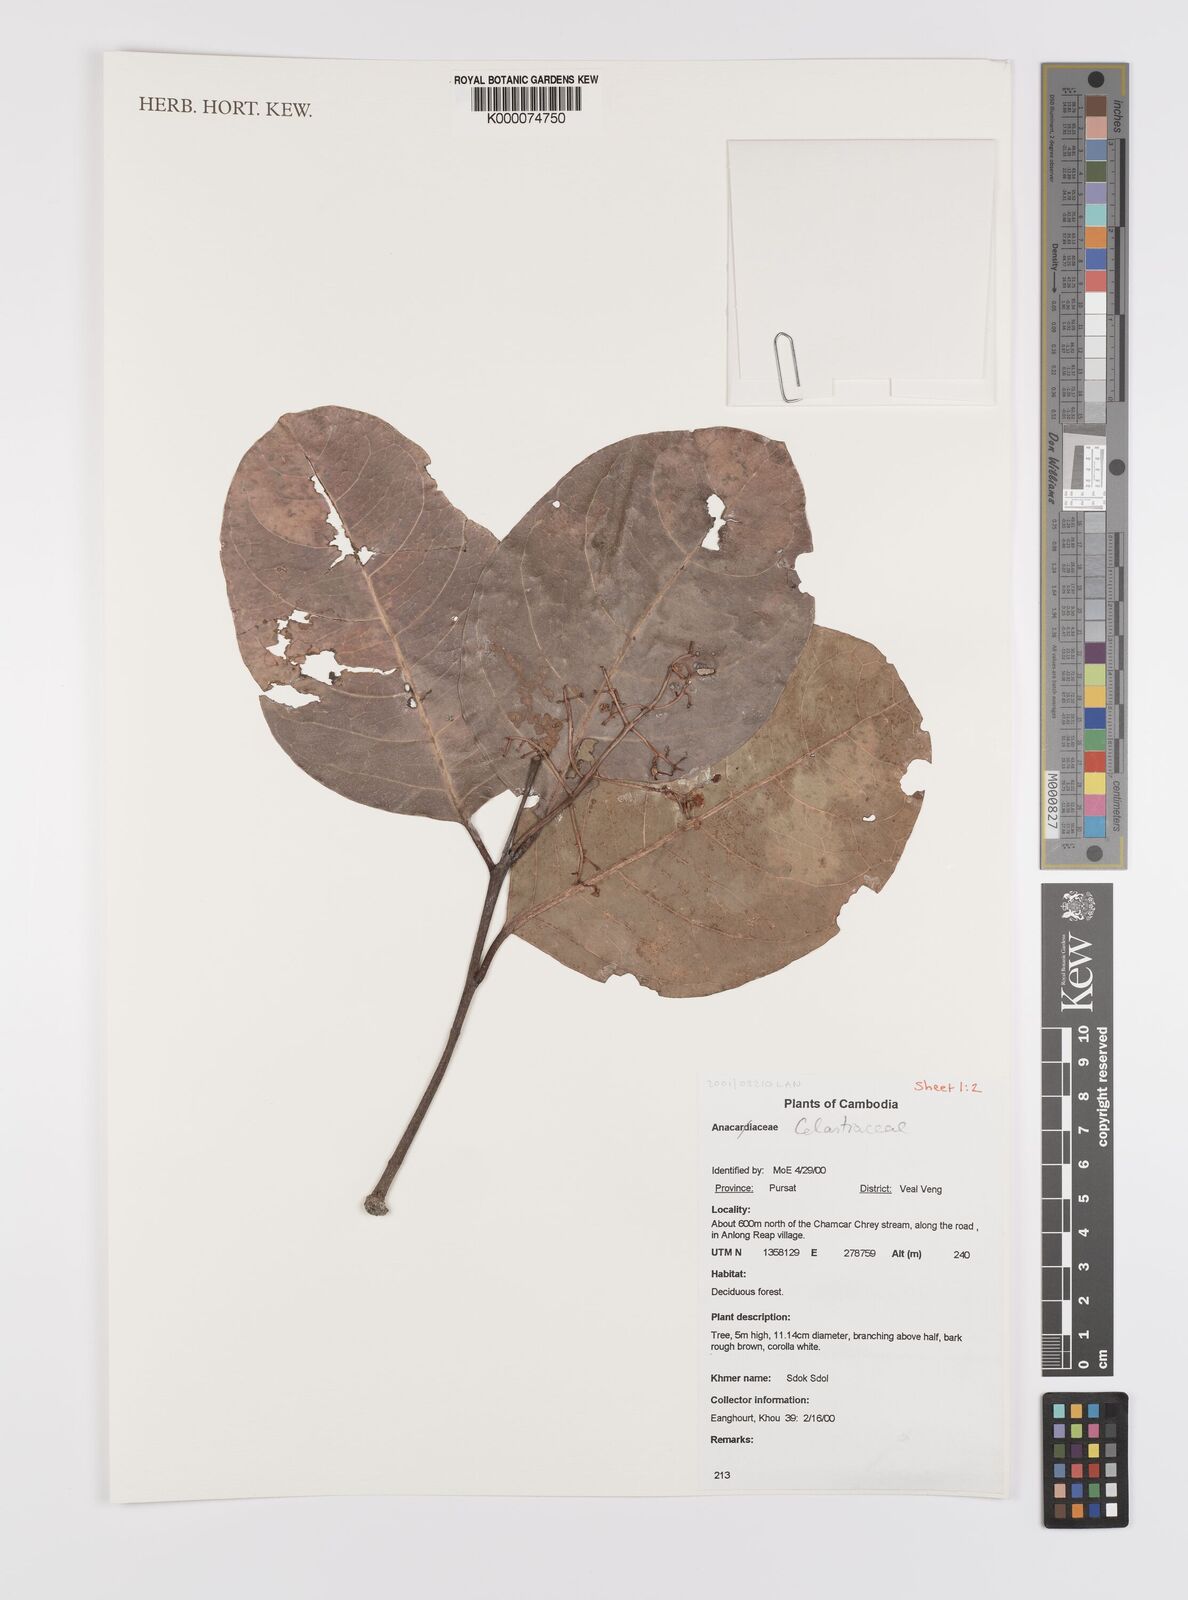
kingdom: Plantae
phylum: Tracheophyta
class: Magnoliopsida
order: Celastrales
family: Celastraceae
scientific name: Celastraceae
